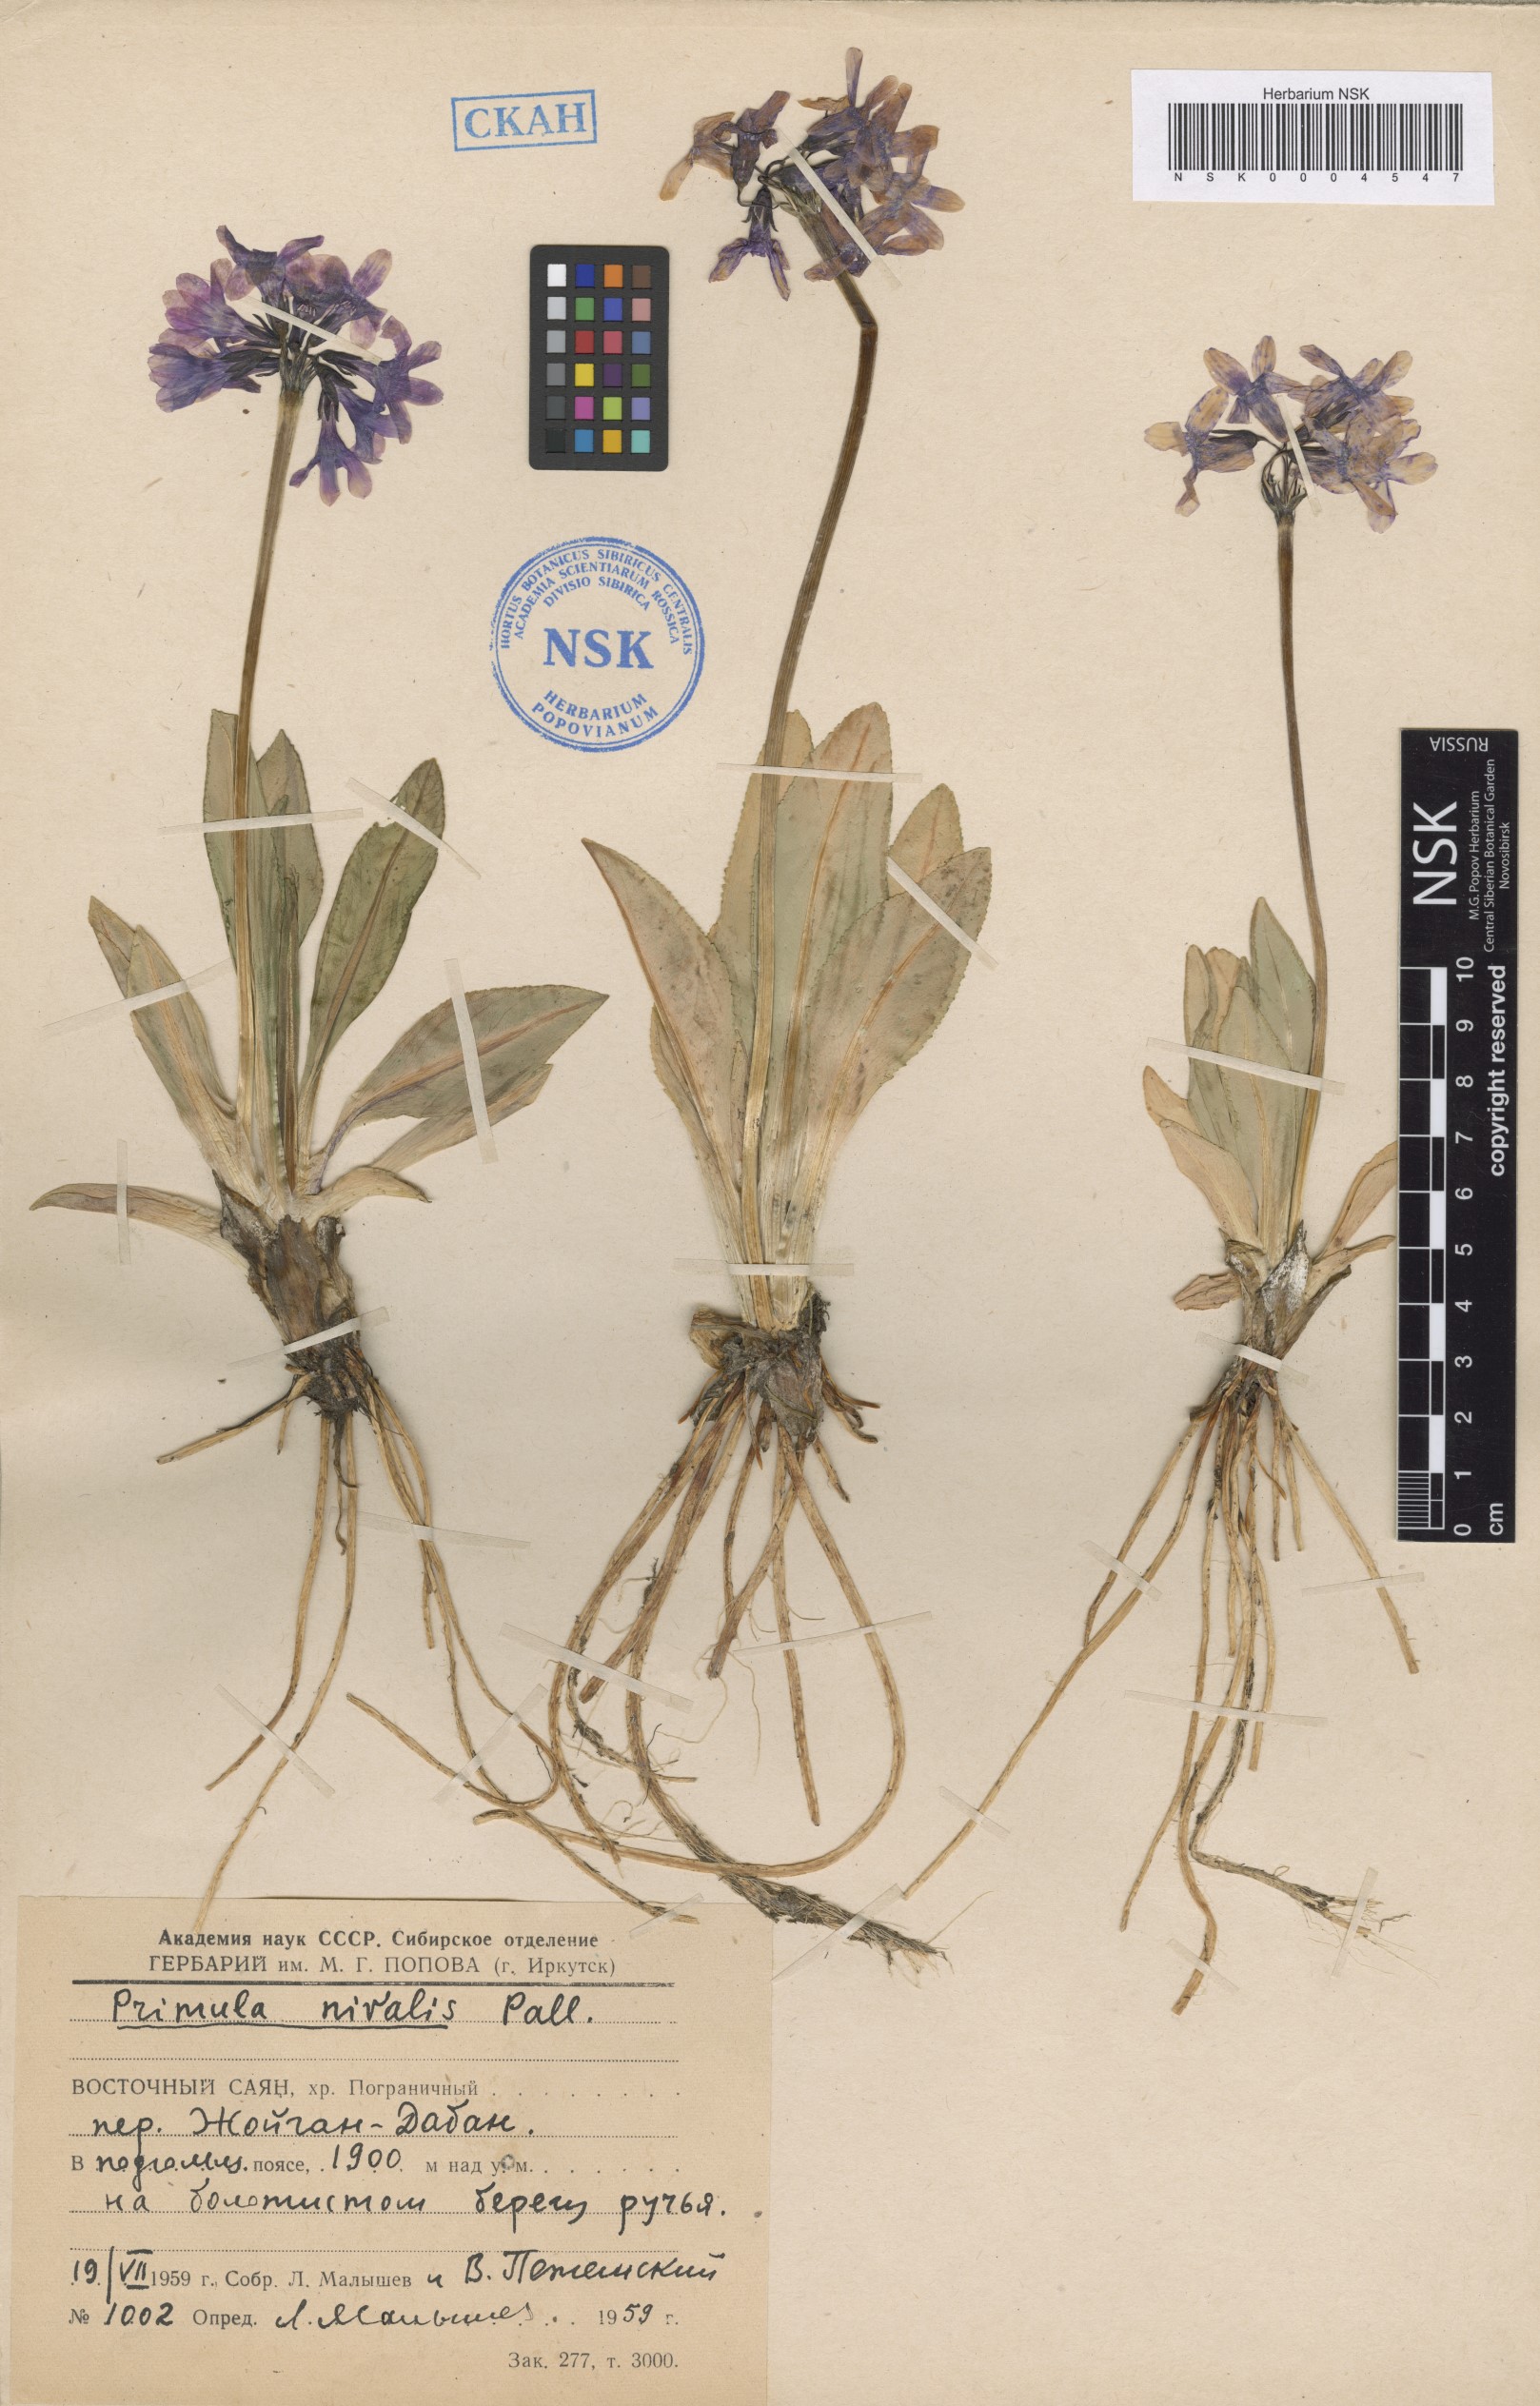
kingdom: Plantae
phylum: Tracheophyta
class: Magnoliopsida
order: Ericales
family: Primulaceae
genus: Primula
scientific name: Primula nivalis
